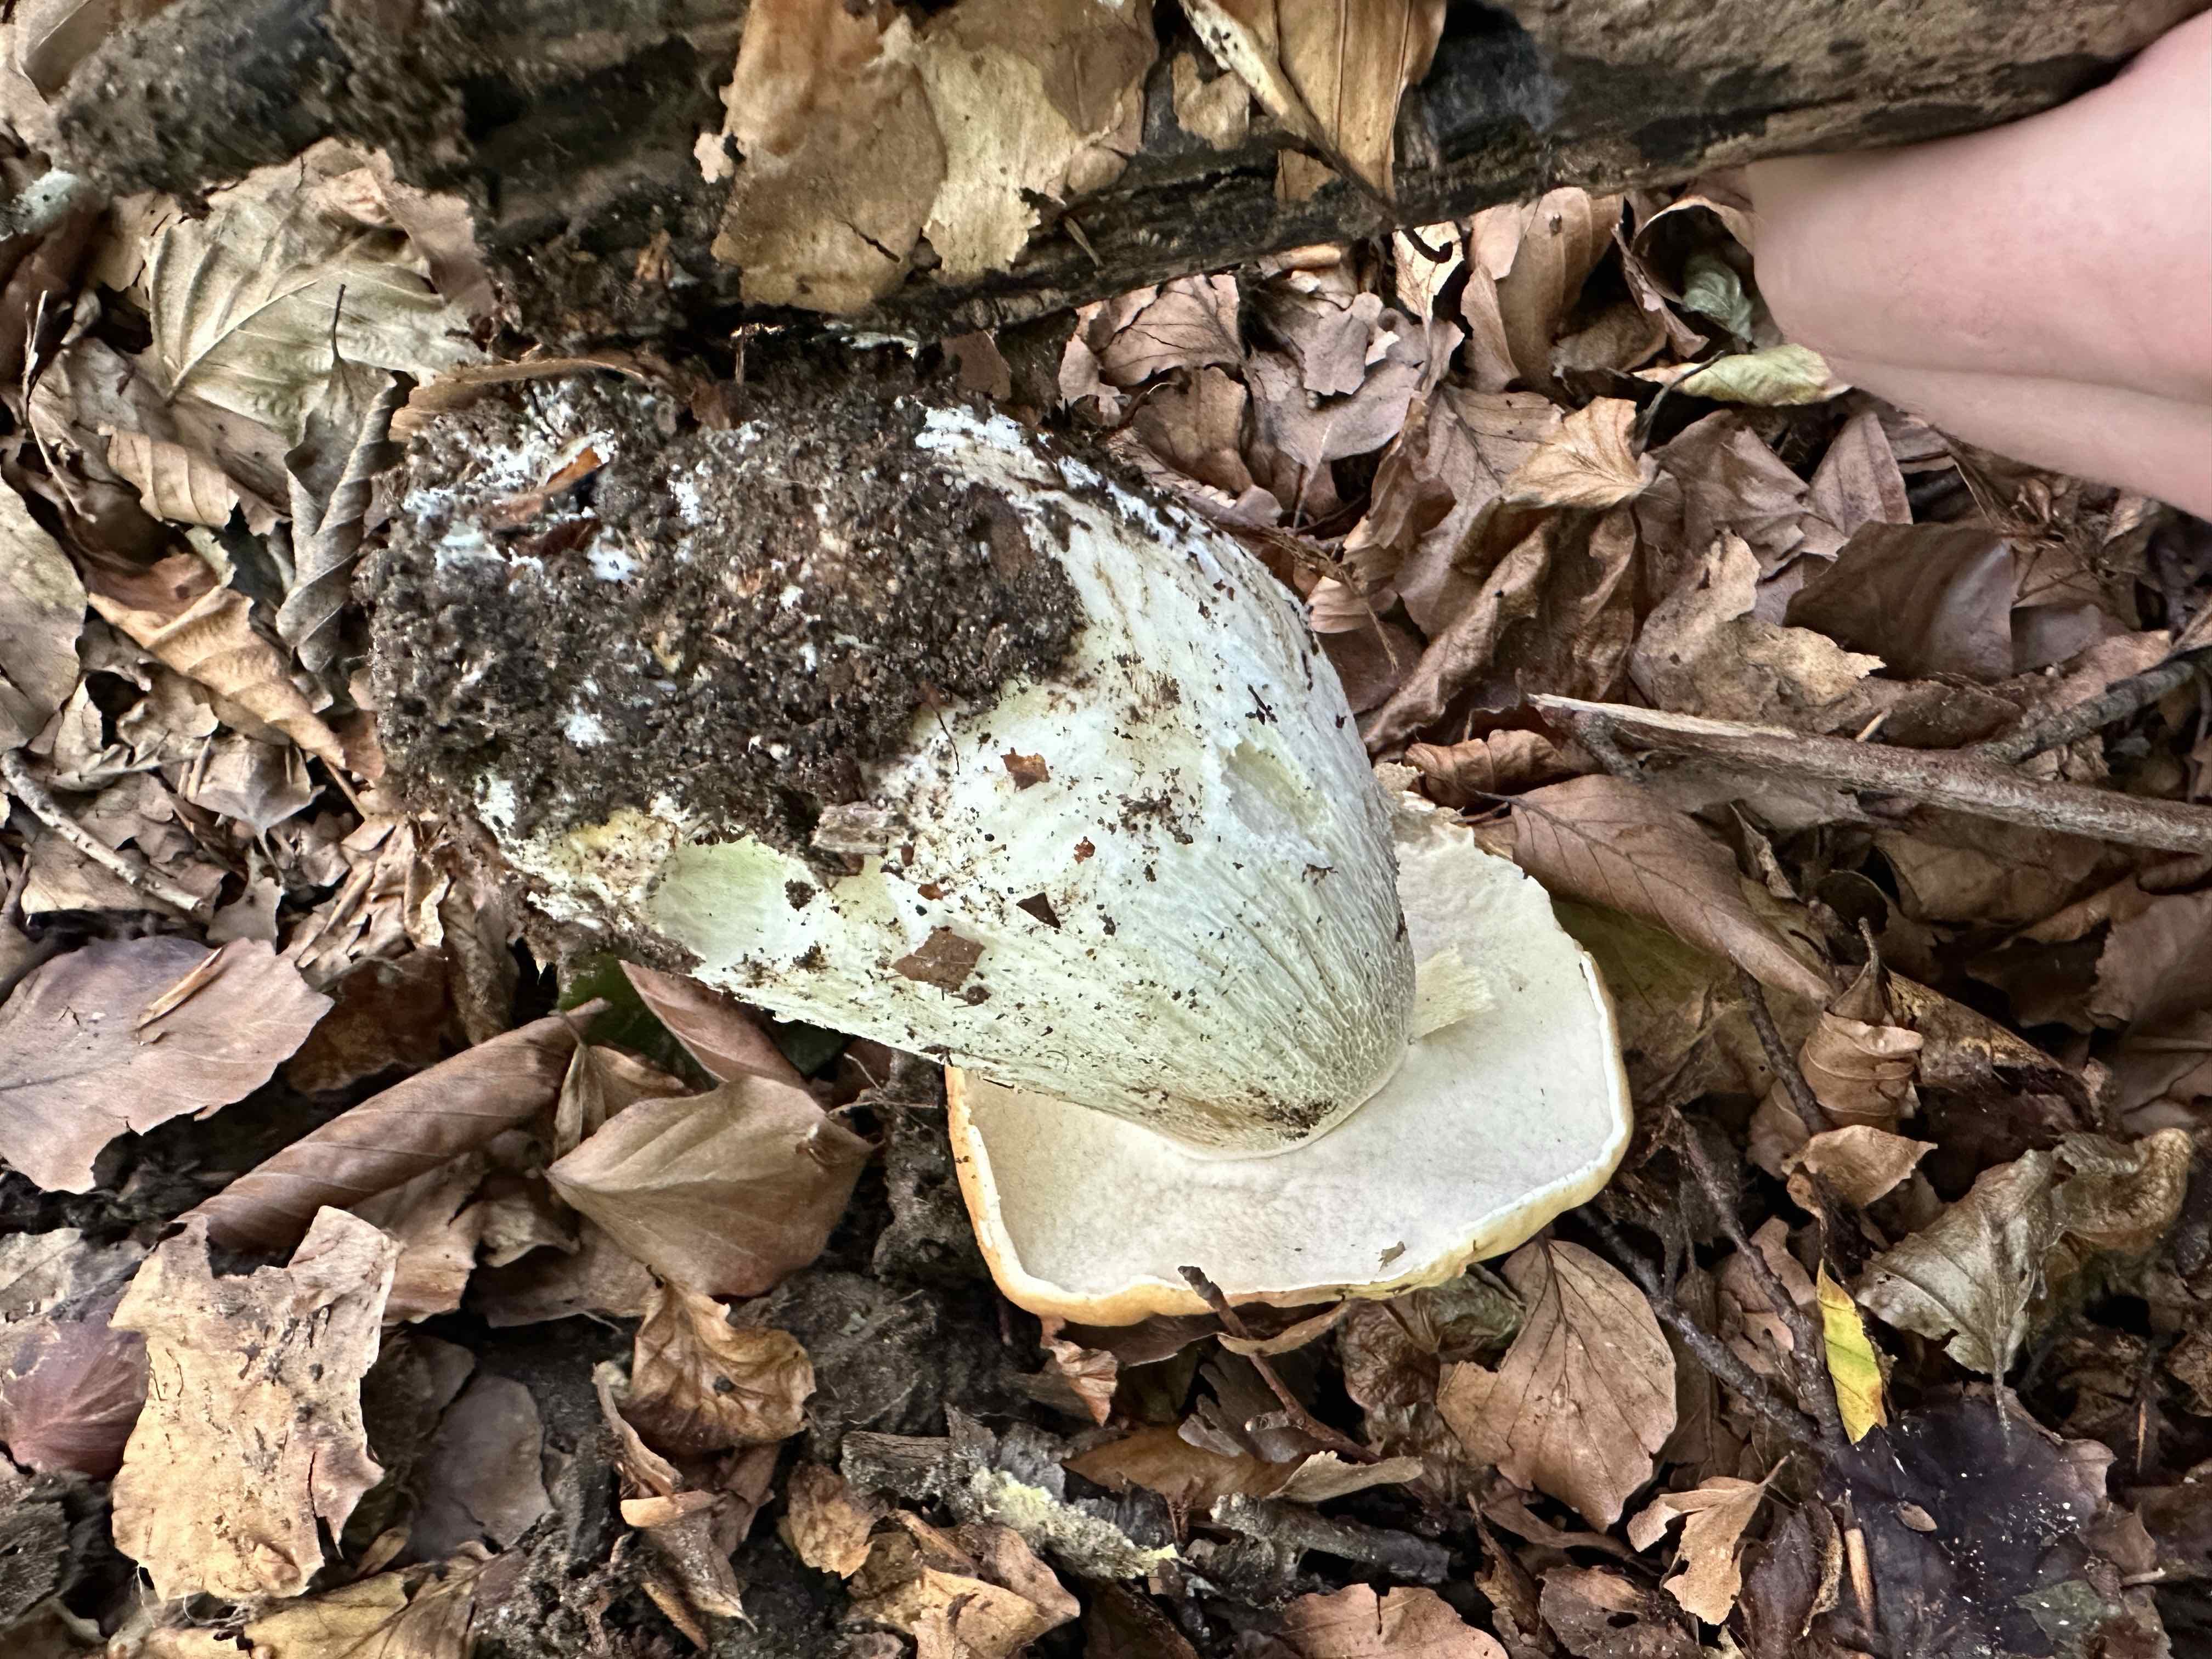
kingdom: Fungi
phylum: Basidiomycota
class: Agaricomycetes
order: Boletales
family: Boletaceae
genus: Boletus
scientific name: Boletus edulis
